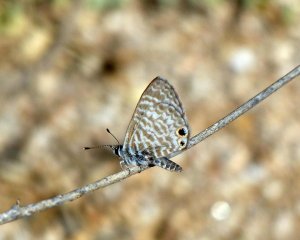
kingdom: Animalia
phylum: Arthropoda
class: Insecta
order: Lepidoptera
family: Lycaenidae
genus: Leptotes
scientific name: Leptotes marina
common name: Marine Blue
